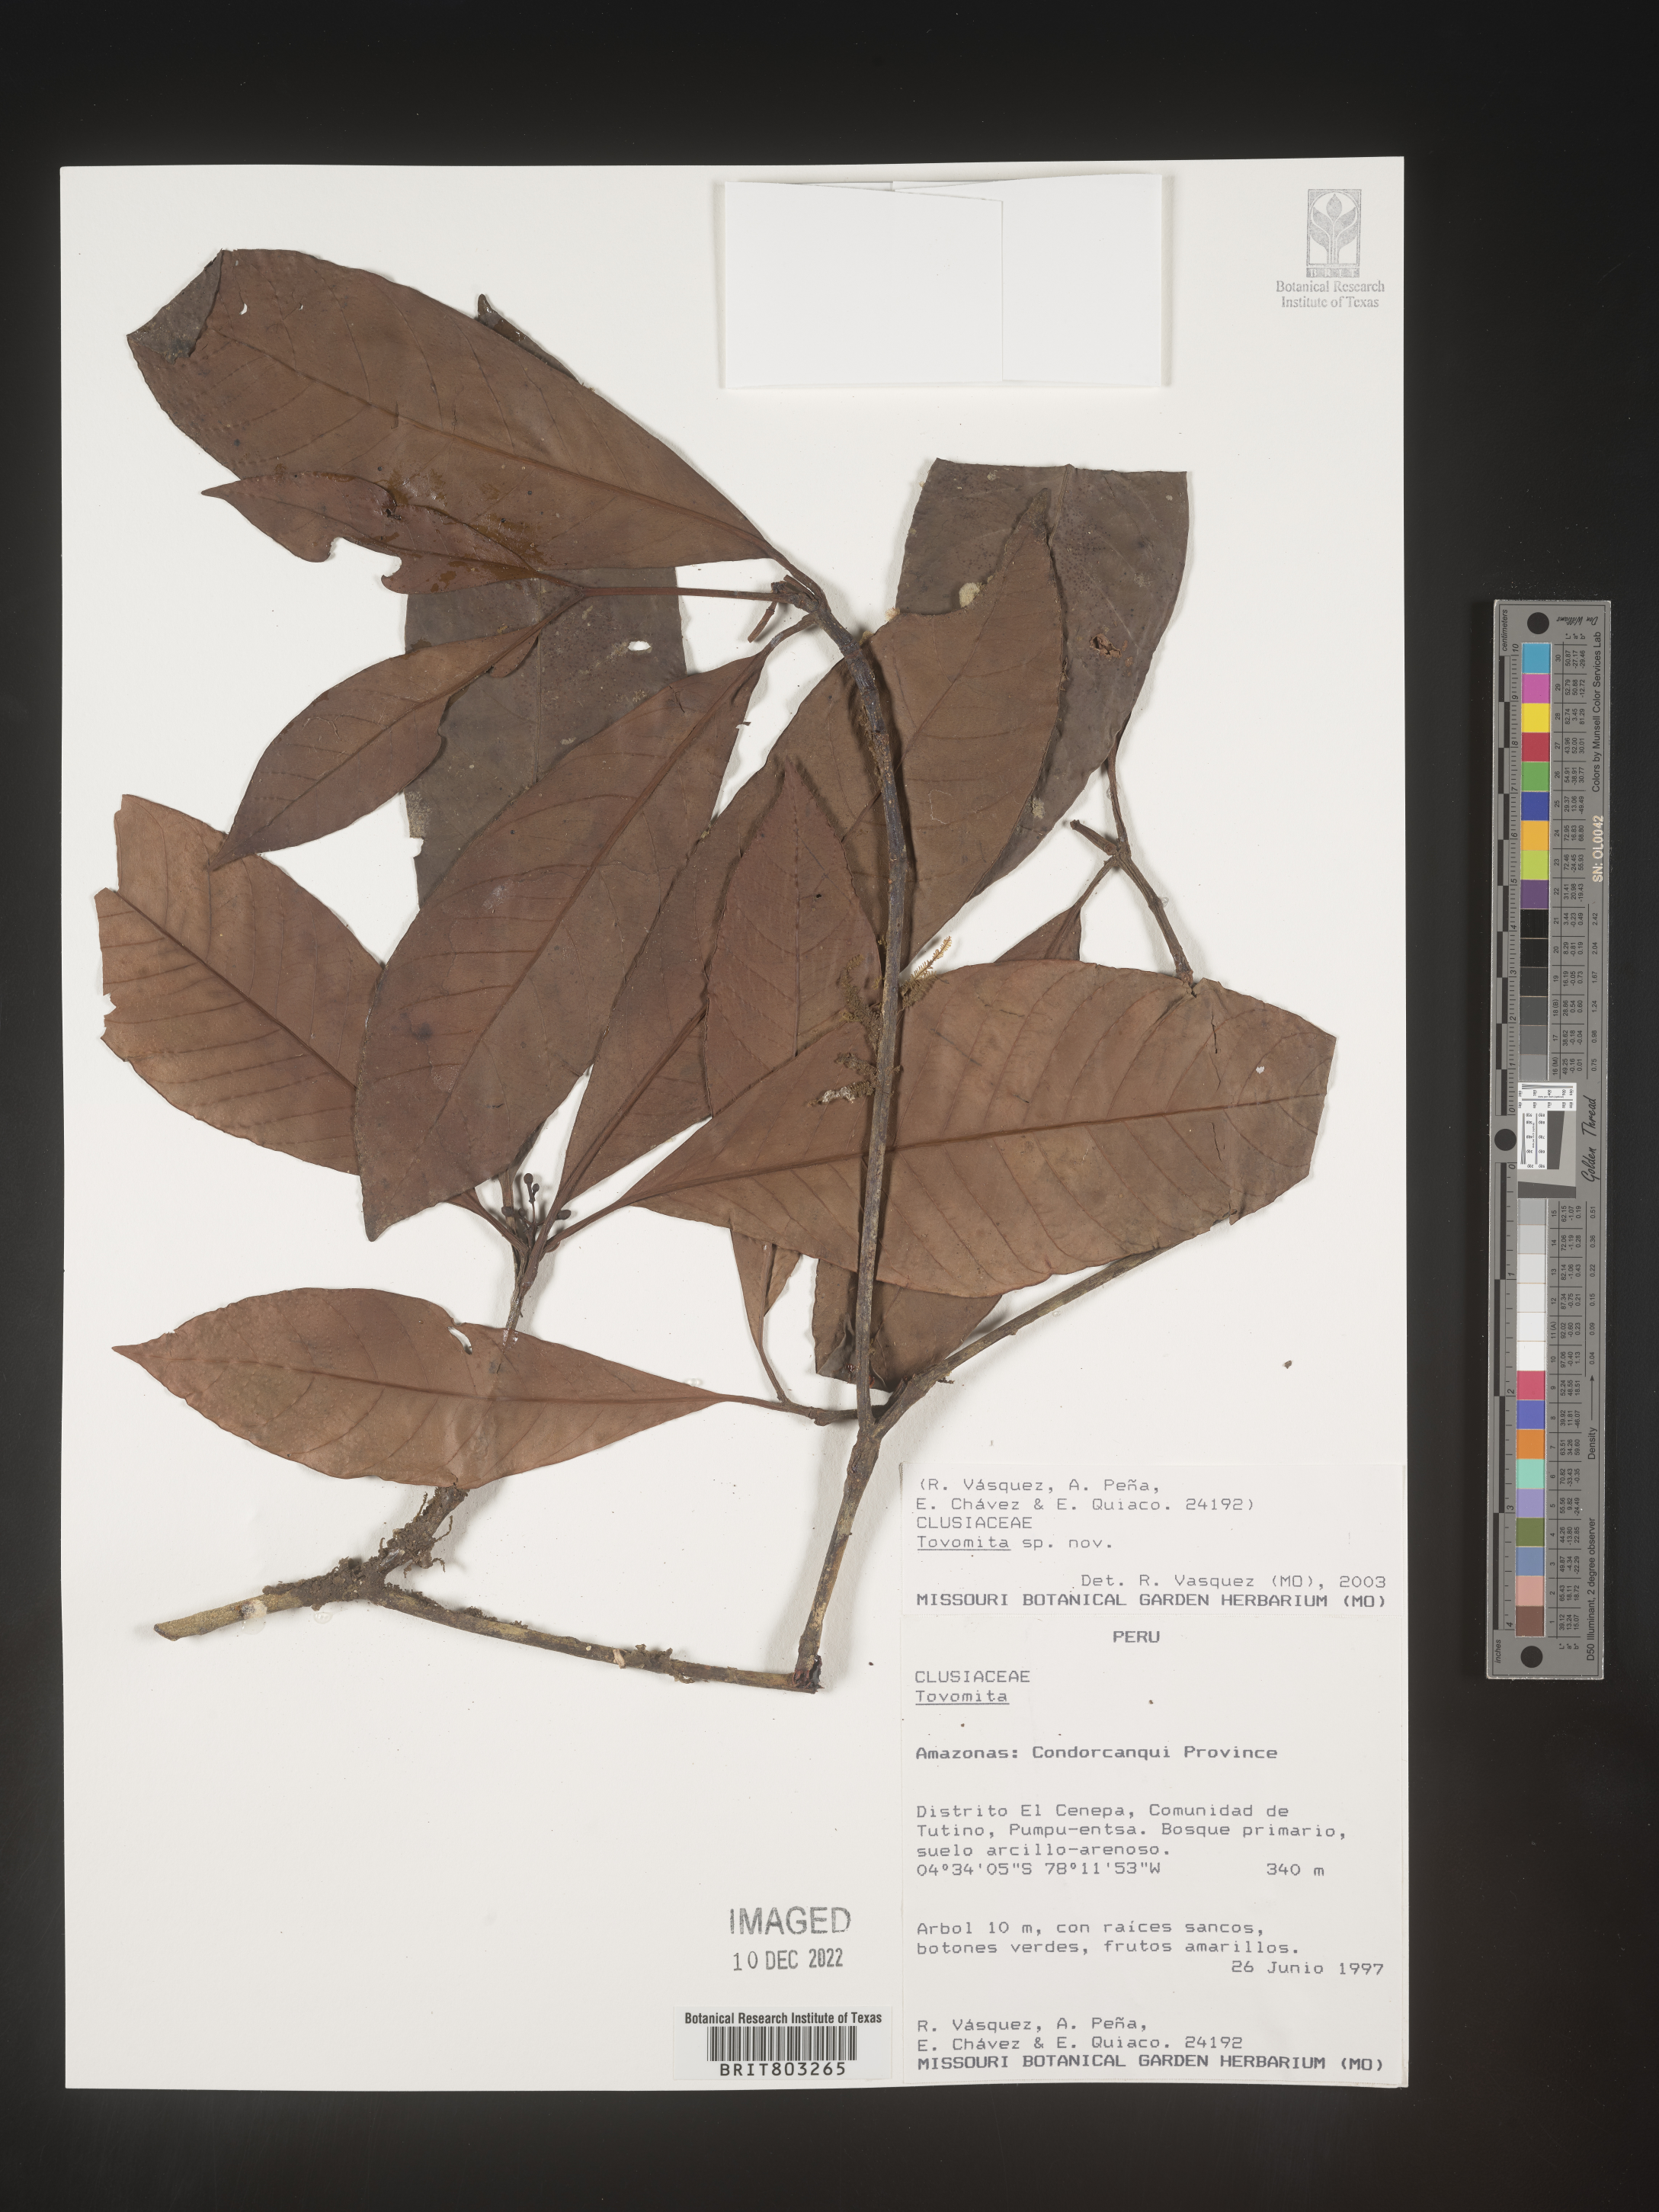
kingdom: Plantae
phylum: Tracheophyta
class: Magnoliopsida
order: Malpighiales
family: Clusiaceae
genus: Tovomita
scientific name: Tovomita
